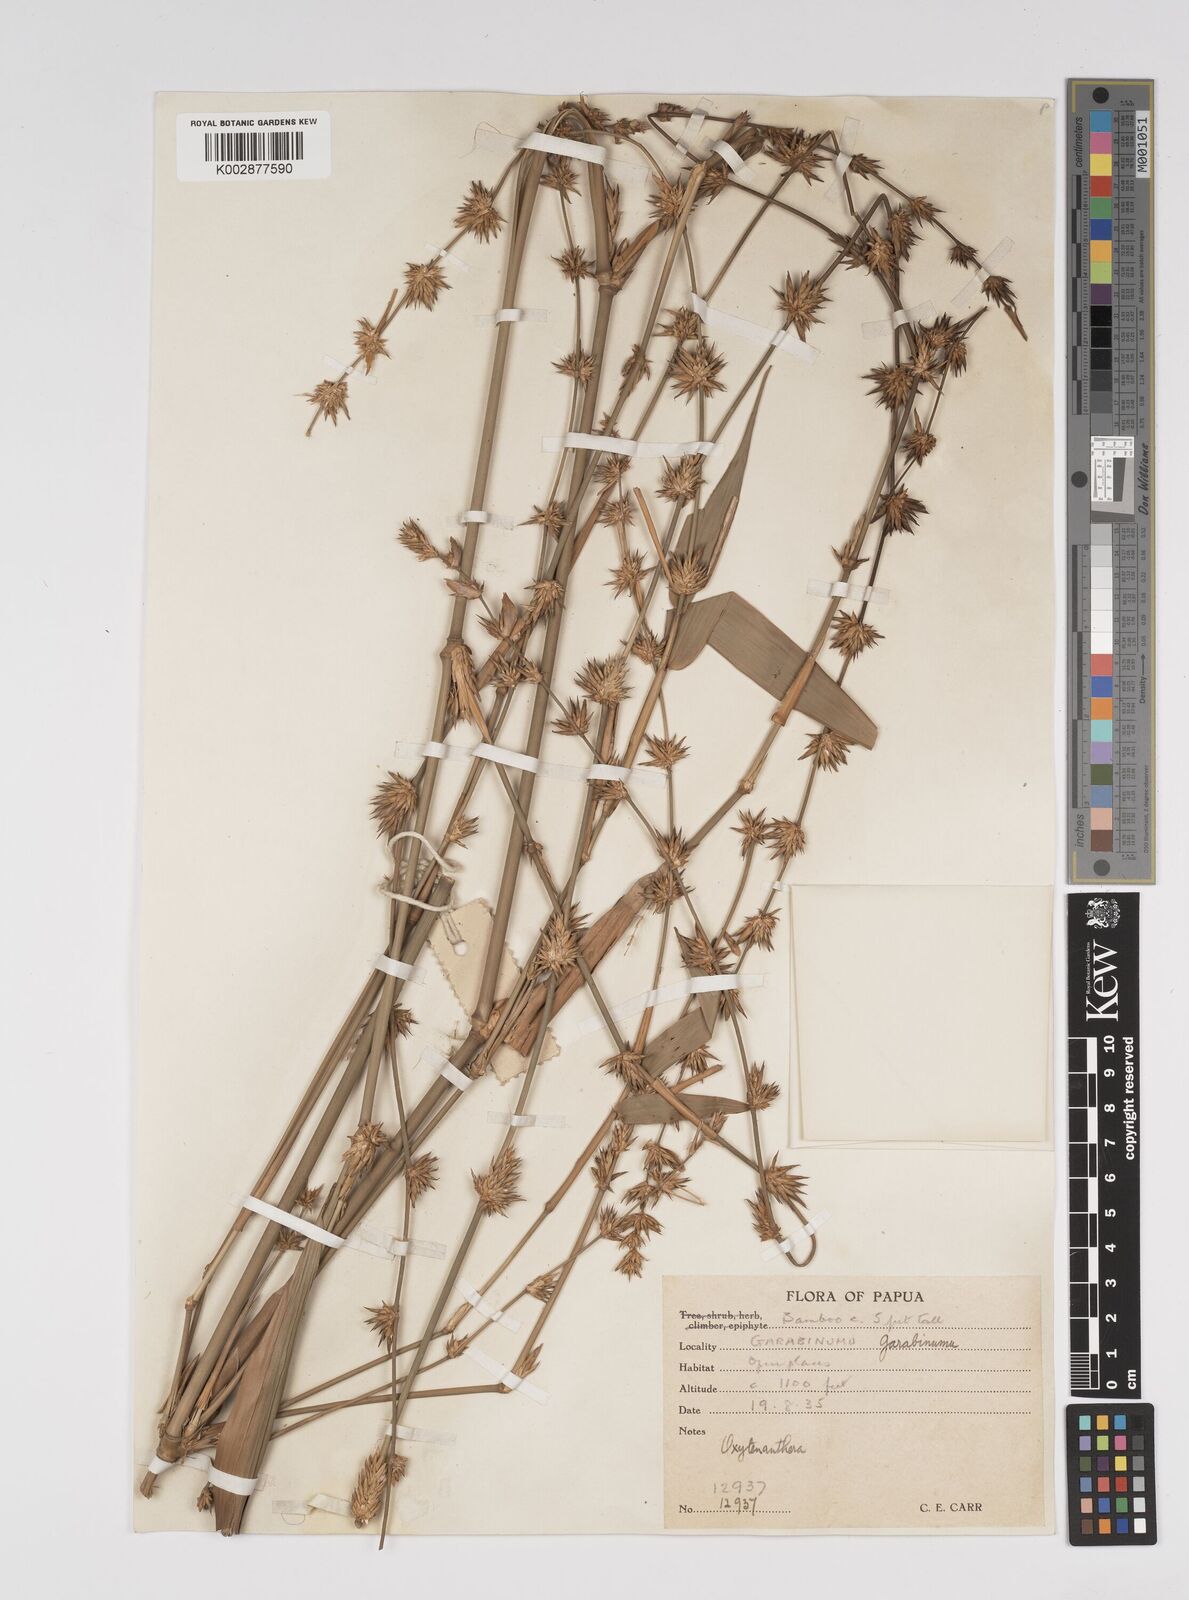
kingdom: Plantae
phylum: Tracheophyta
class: Liliopsida
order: Poales
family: Poaceae
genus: Bambusa
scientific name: Bambusa fruticosa
